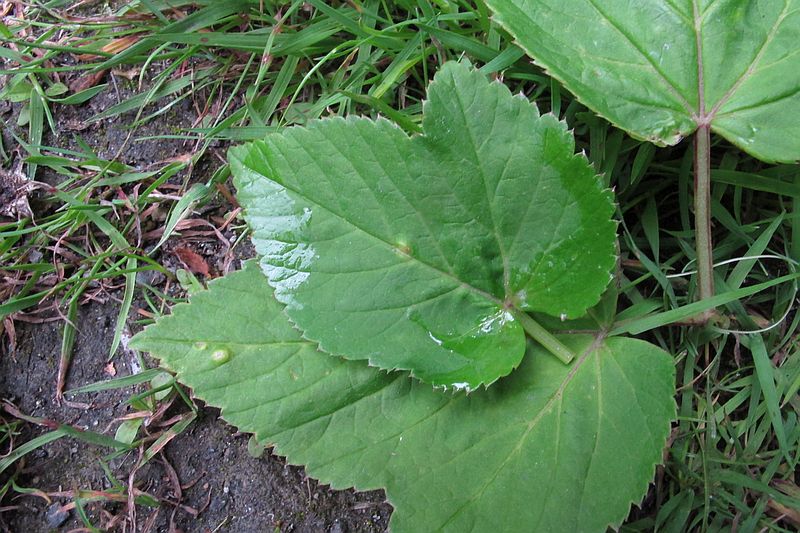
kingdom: Fungi
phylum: Basidiomycota
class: Pucciniomycetes
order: Pucciniales
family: Pucciniaceae
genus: Puccinia
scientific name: Puccinia
